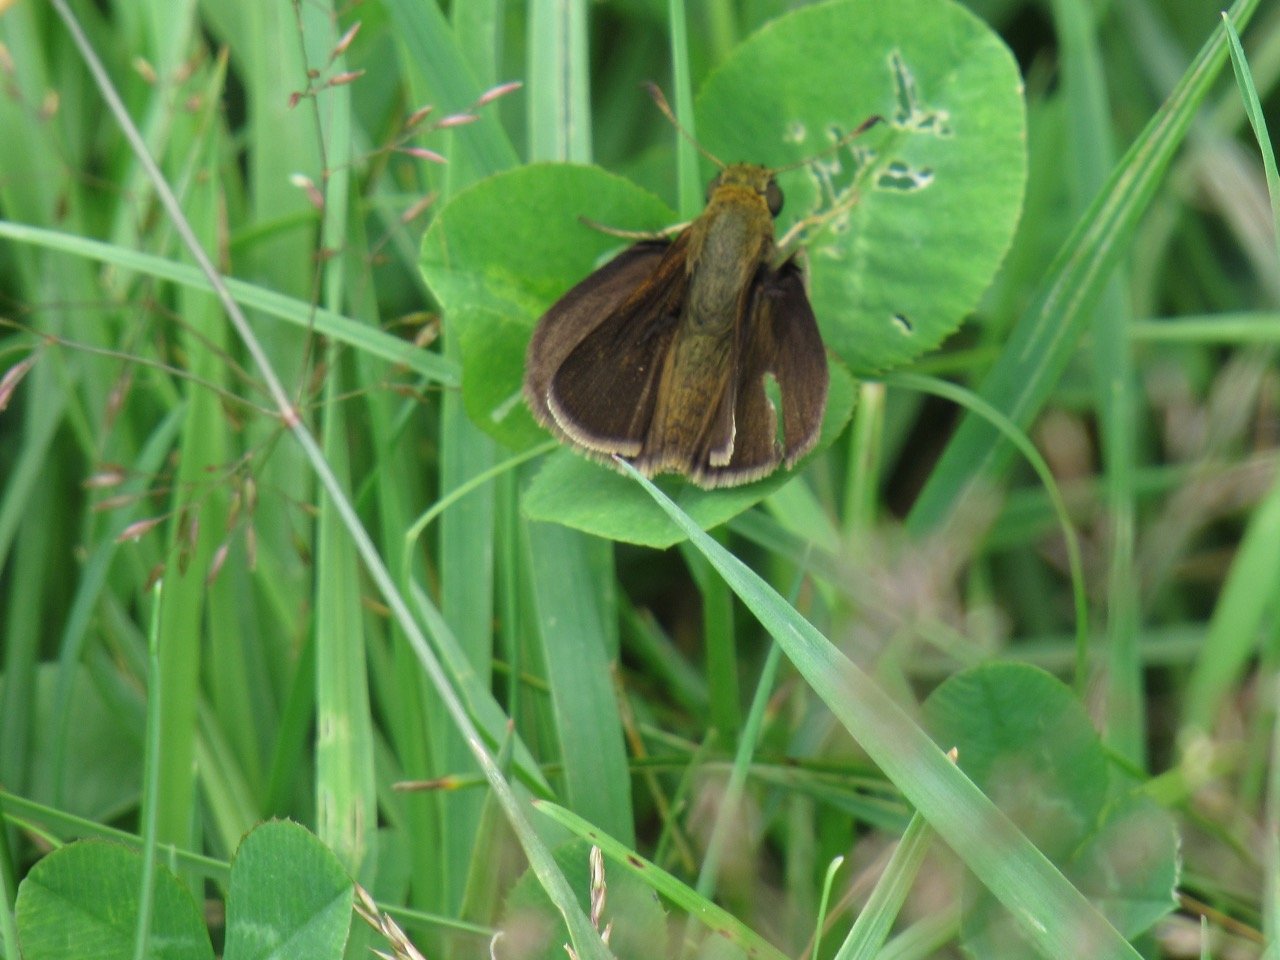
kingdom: Animalia
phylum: Arthropoda
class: Insecta
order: Lepidoptera
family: Hesperiidae
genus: Euphyes
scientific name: Euphyes vestris
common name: Dun Skipper
